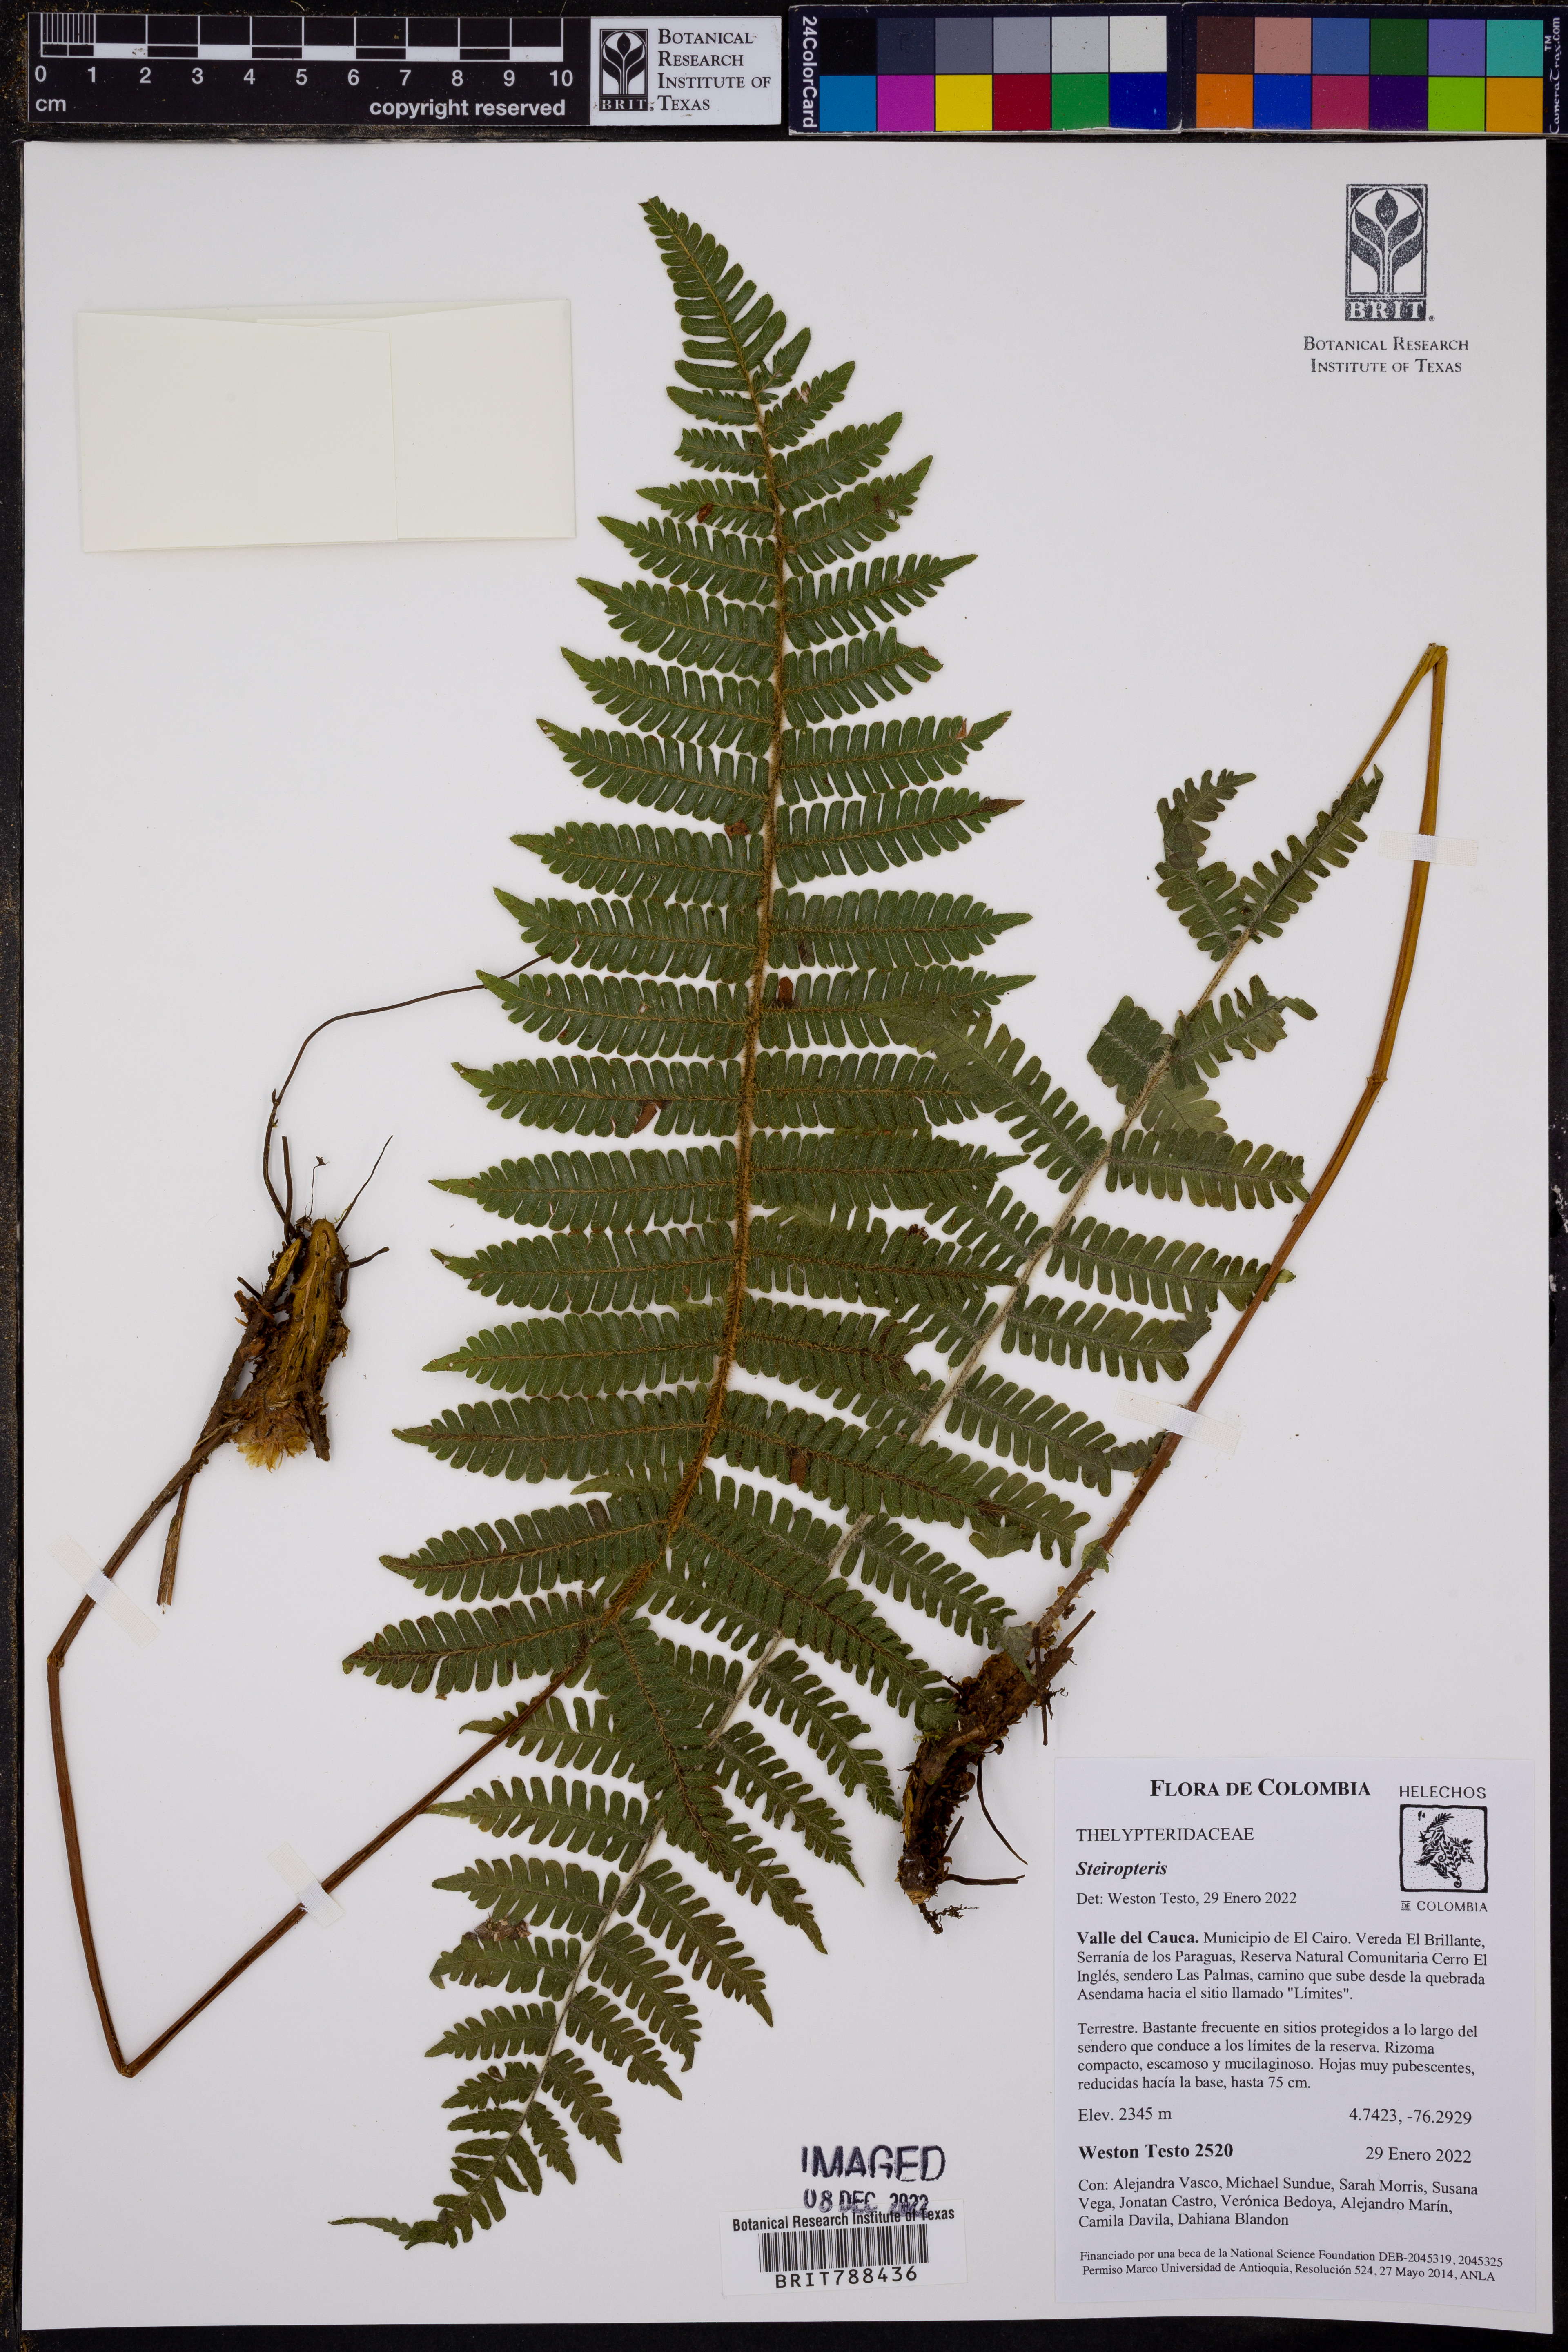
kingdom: Plantae
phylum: Tracheophyta
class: Polypodiopsida
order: Polypodiales
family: Thelypteridaceae
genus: Steiropteris
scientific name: Steiropteris
